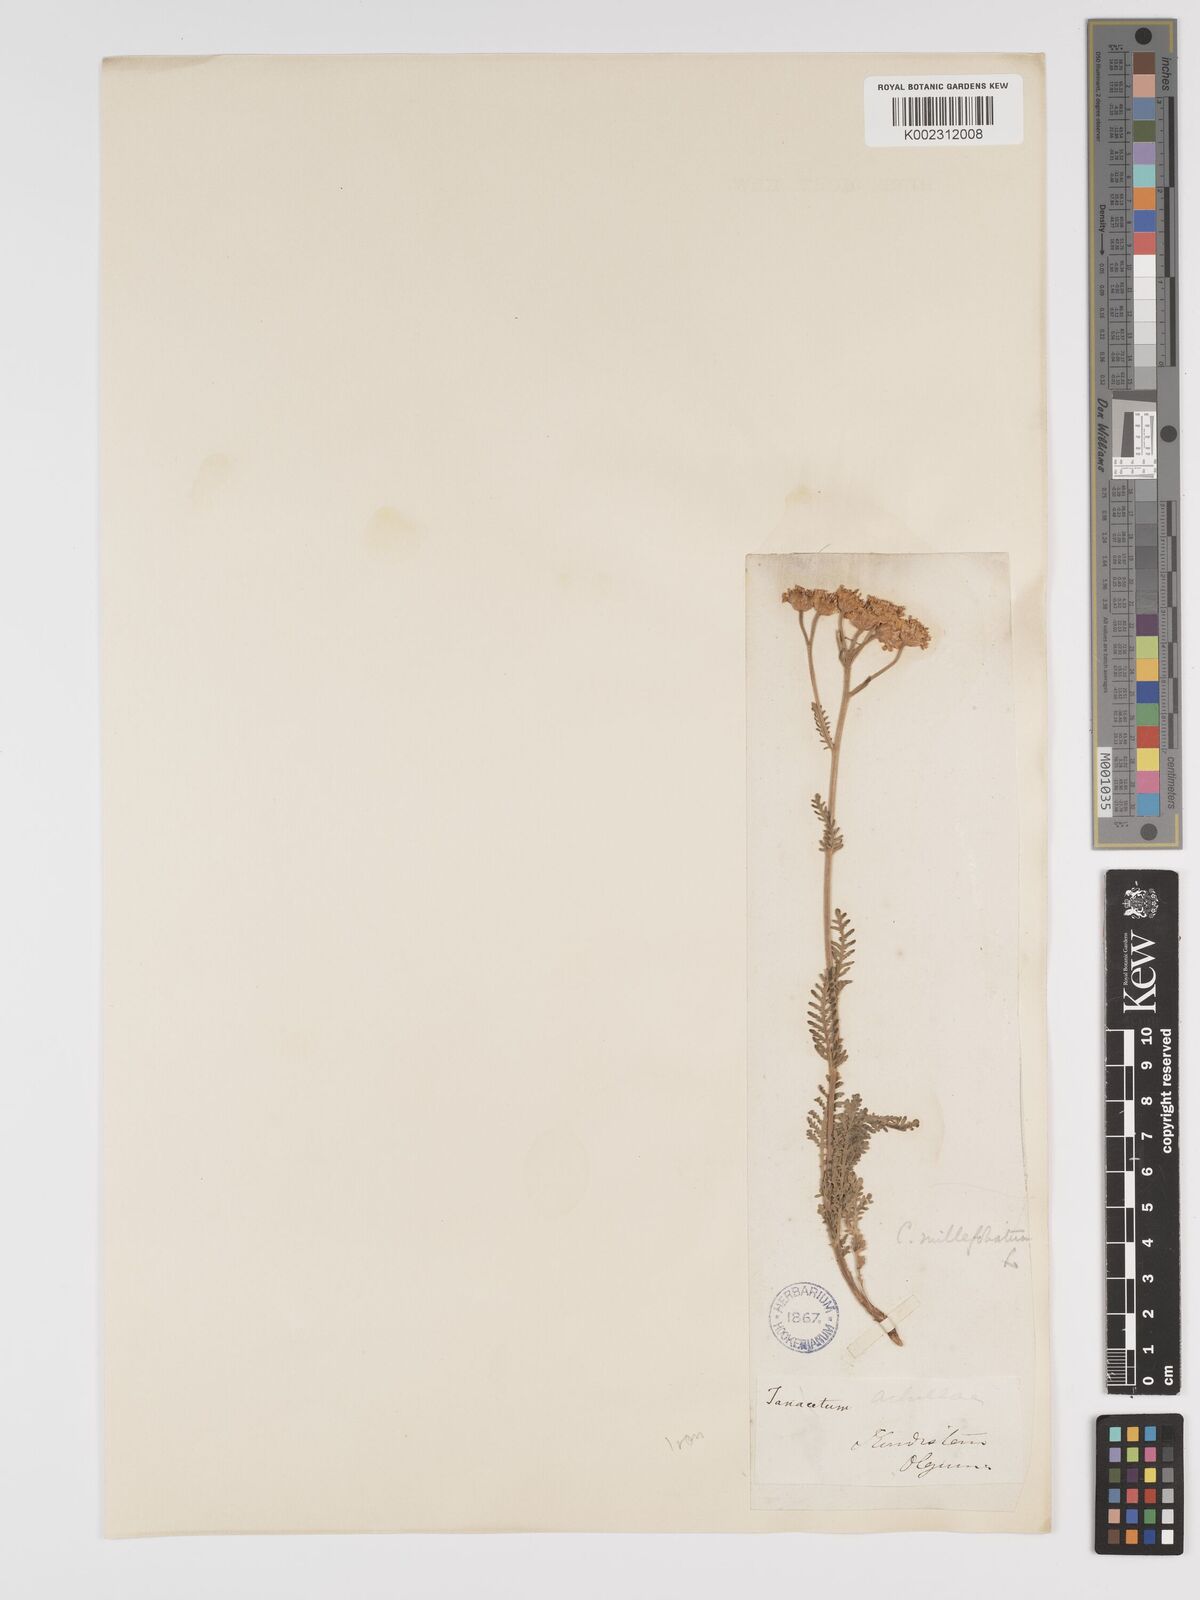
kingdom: Plantae
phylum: Tracheophyta
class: Magnoliopsida
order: Asterales
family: Asteraceae
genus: Tanacetum
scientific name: Tanacetum tanacetoides
